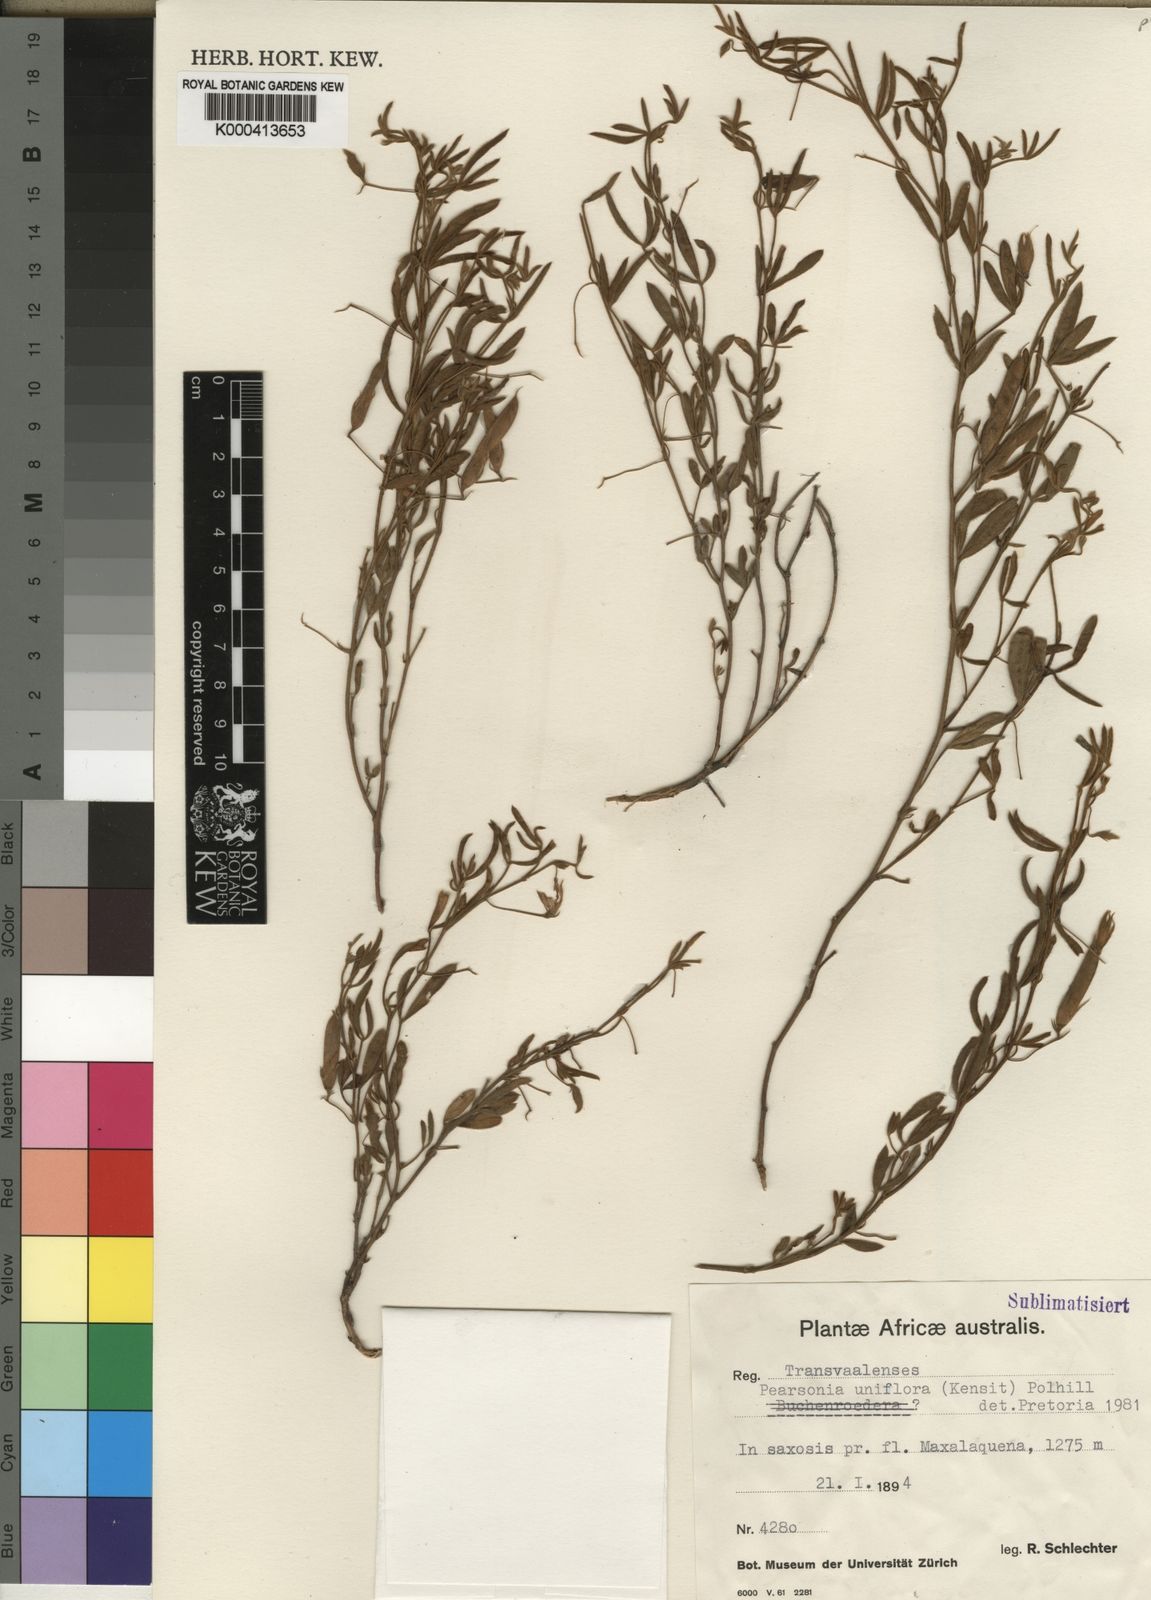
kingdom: Plantae
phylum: Tracheophyta
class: Magnoliopsida
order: Fabales
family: Fabaceae
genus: Pearsonia
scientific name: Pearsonia uniflora
